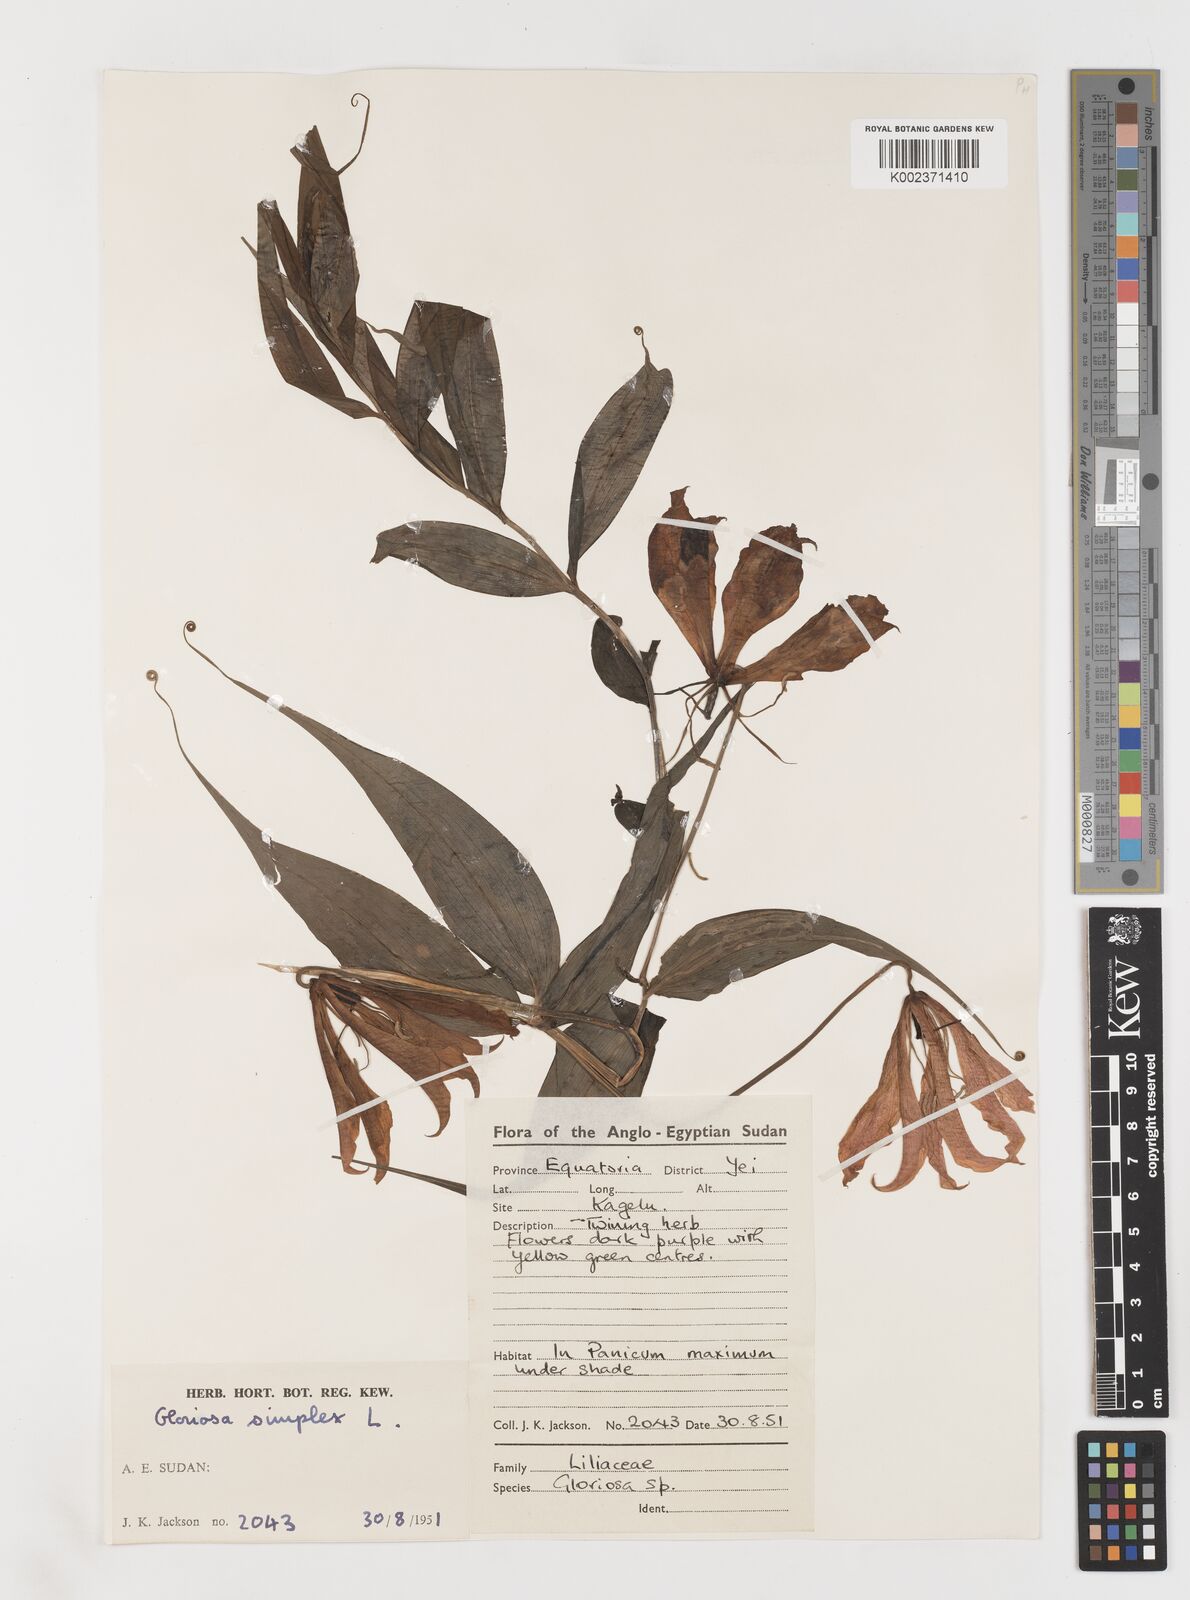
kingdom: Plantae
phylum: Tracheophyta
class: Liliopsida
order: Liliales
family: Colchicaceae
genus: Gloriosa
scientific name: Gloriosa simplex
